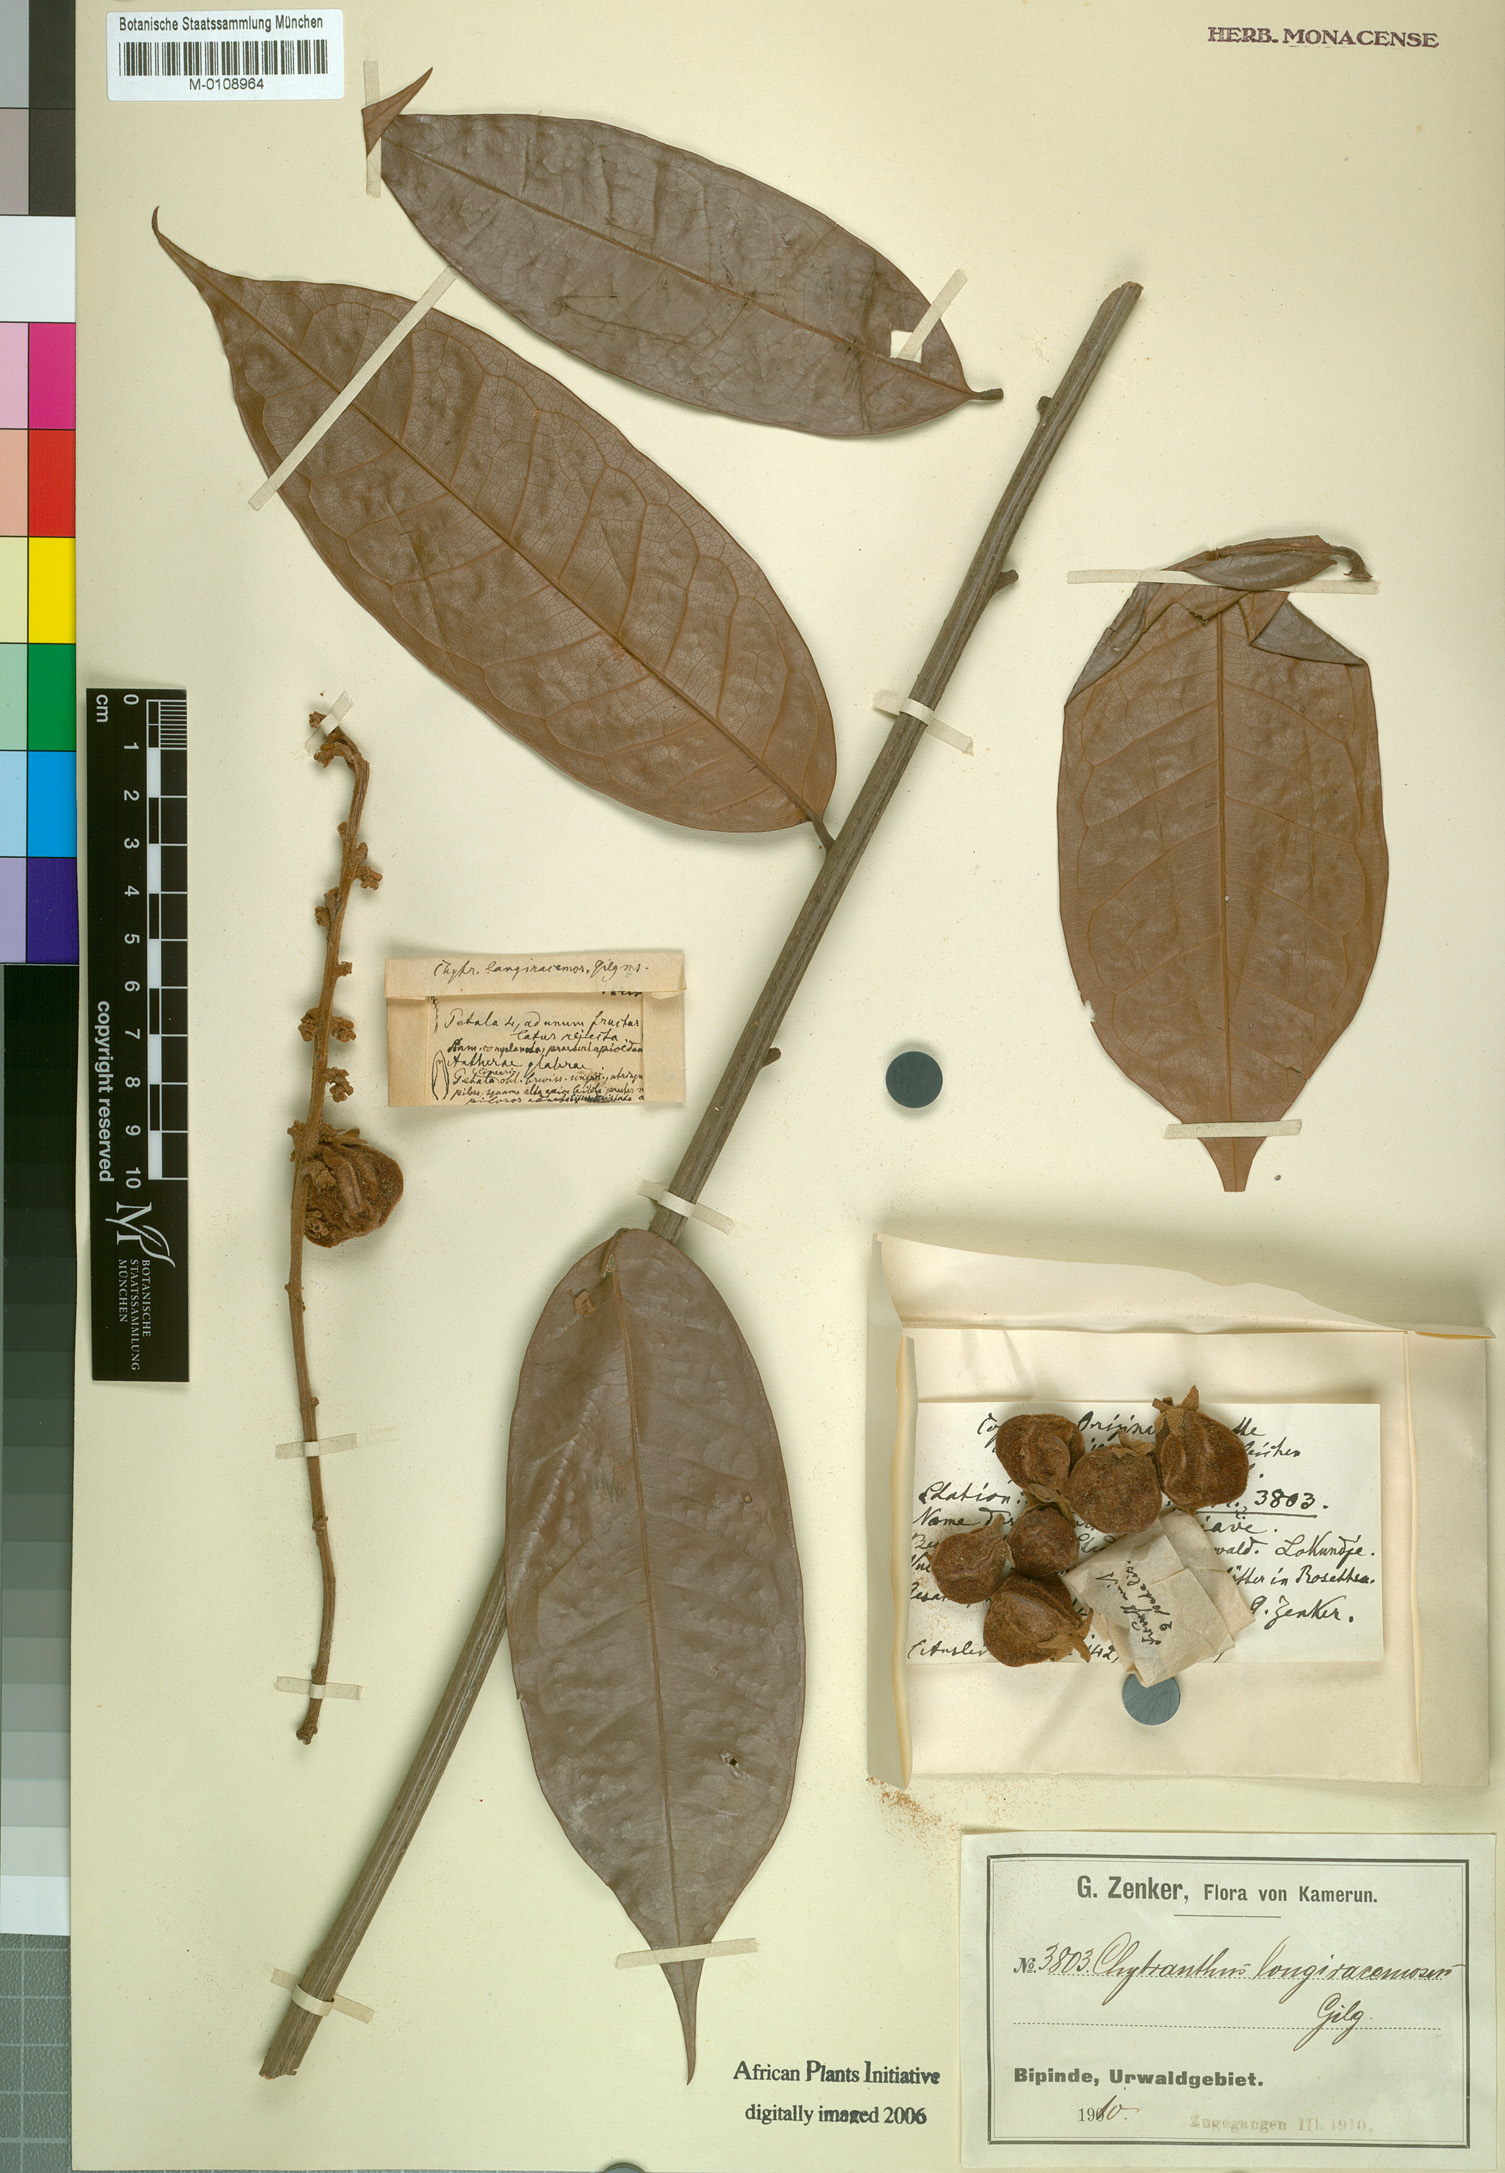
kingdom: Plantae
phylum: Tracheophyta
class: Magnoliopsida
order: Sapindales
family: Sapindaceae
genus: Chytranthus
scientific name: Chytranthus carneus
